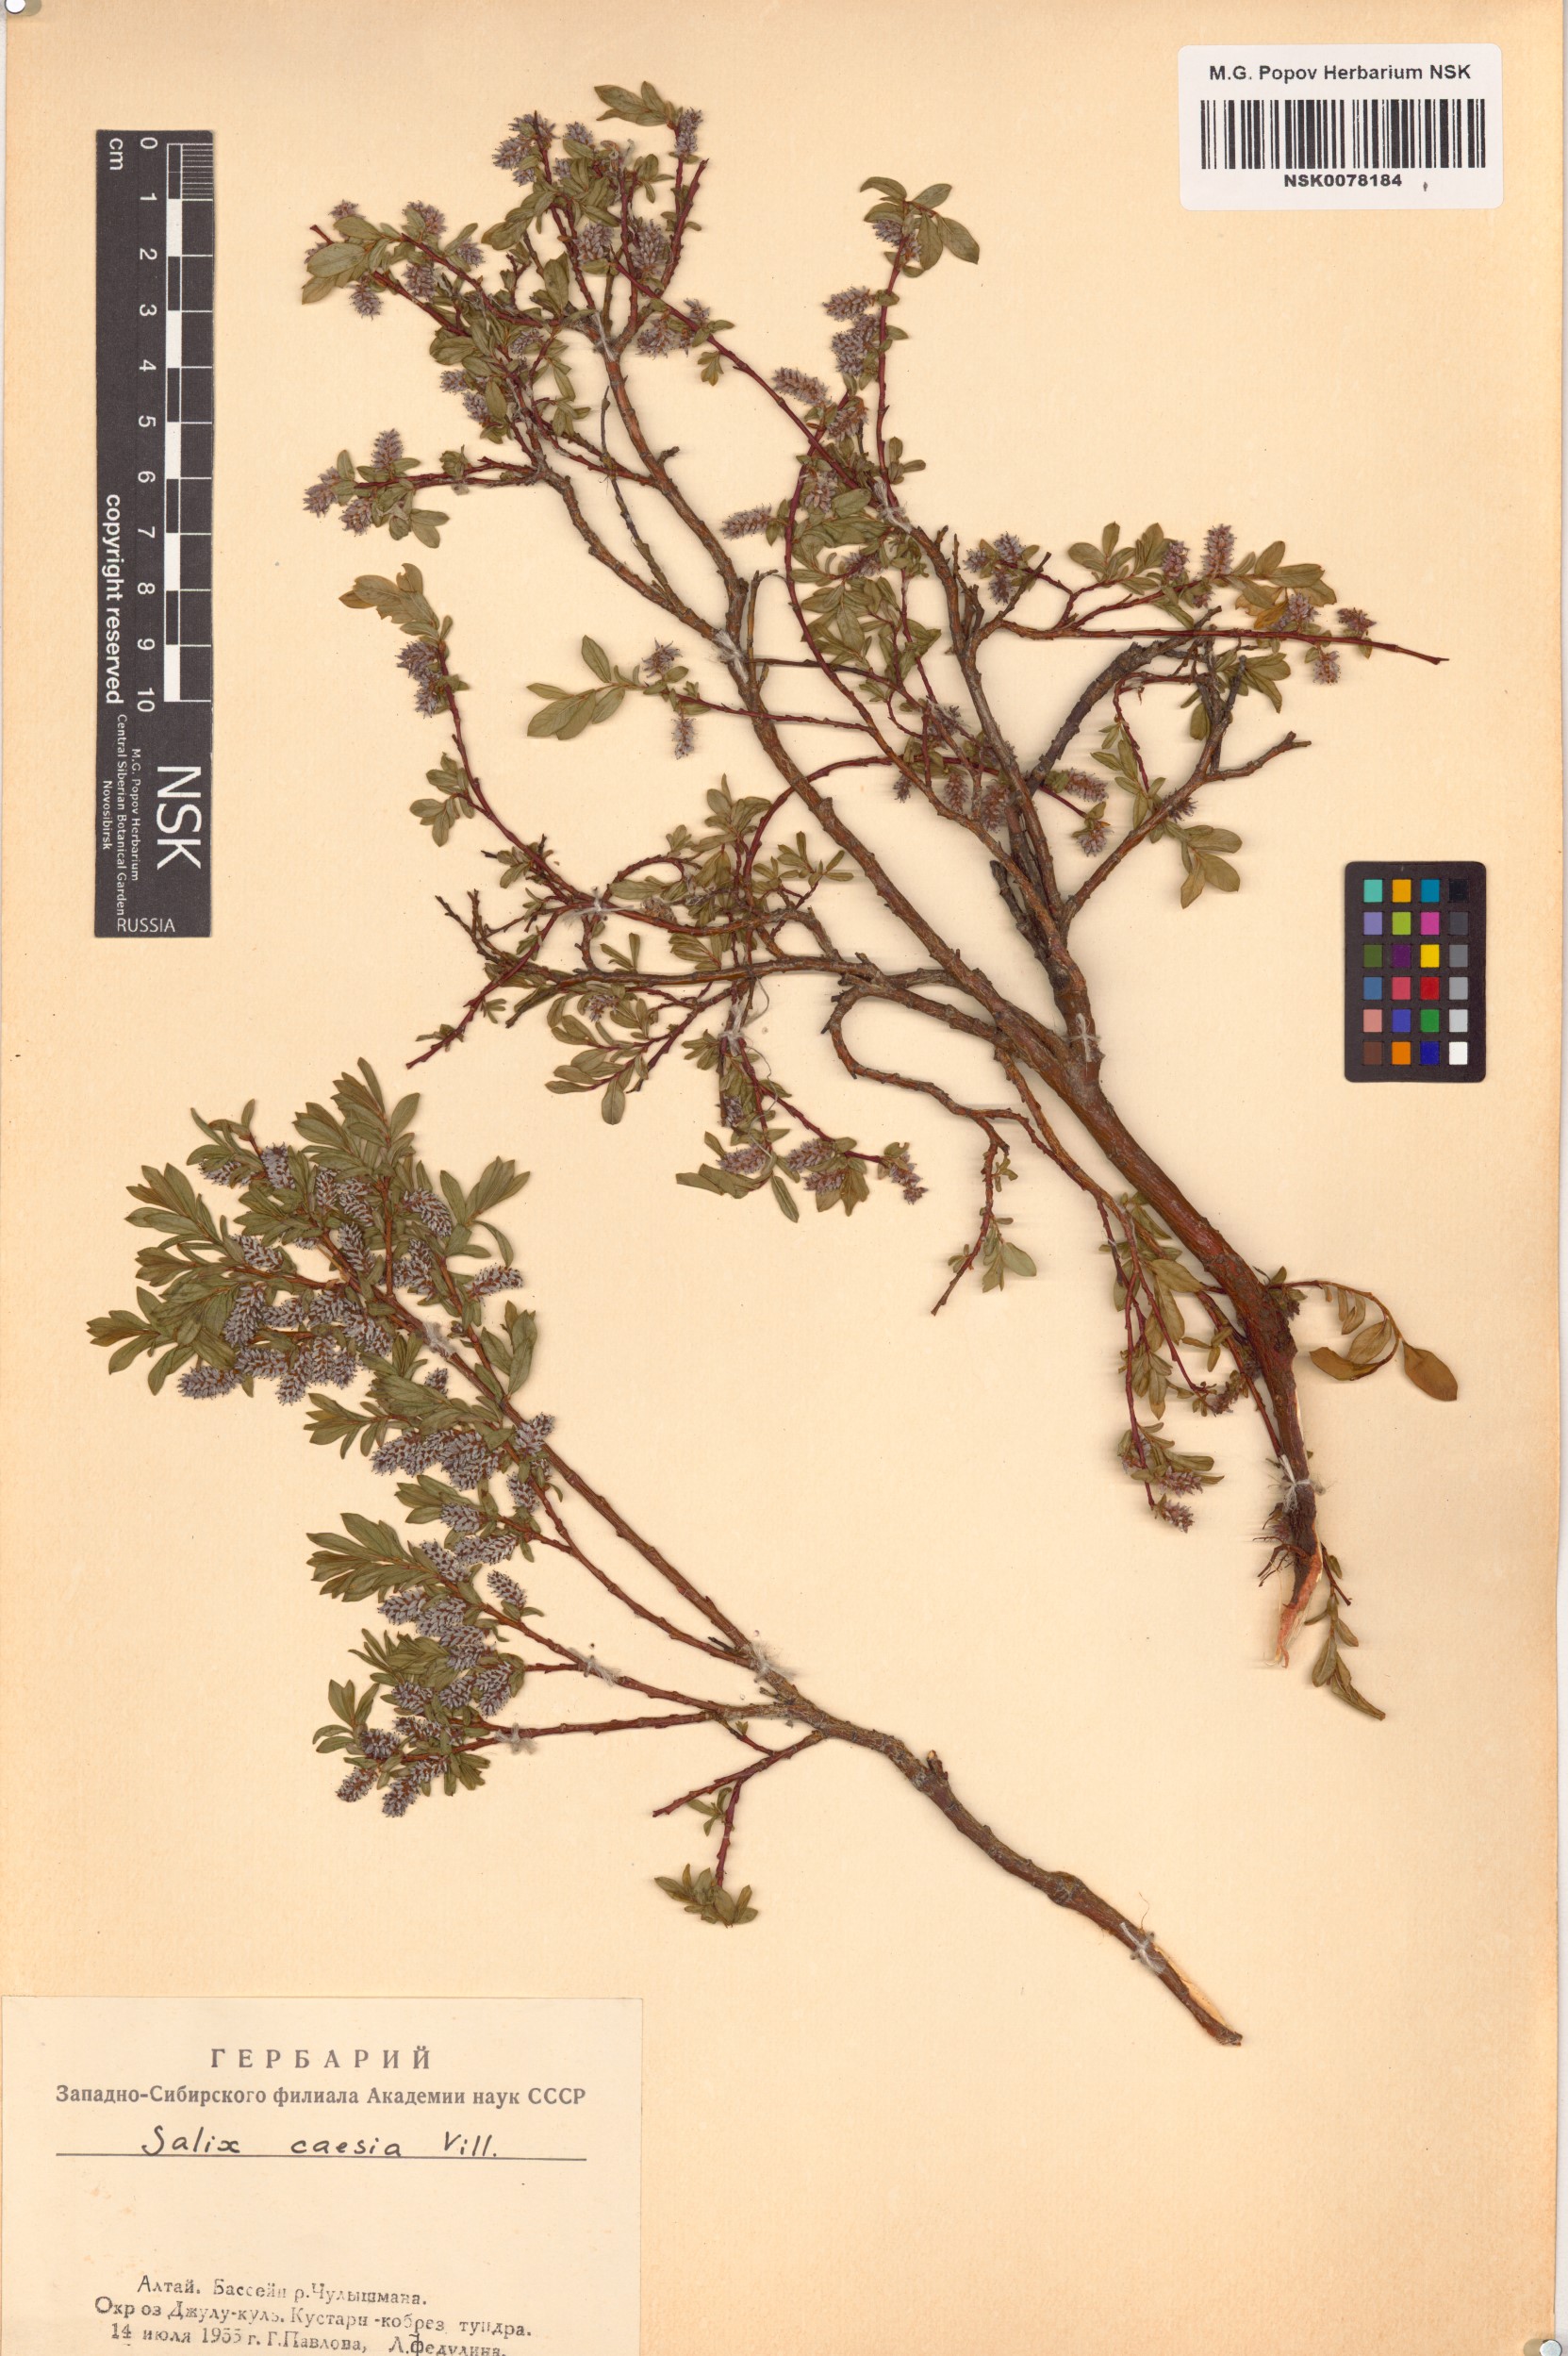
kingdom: Plantae
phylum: Tracheophyta
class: Magnoliopsida
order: Malpighiales
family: Salicaceae
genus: Salix
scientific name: Salix caesia
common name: Blue willow
